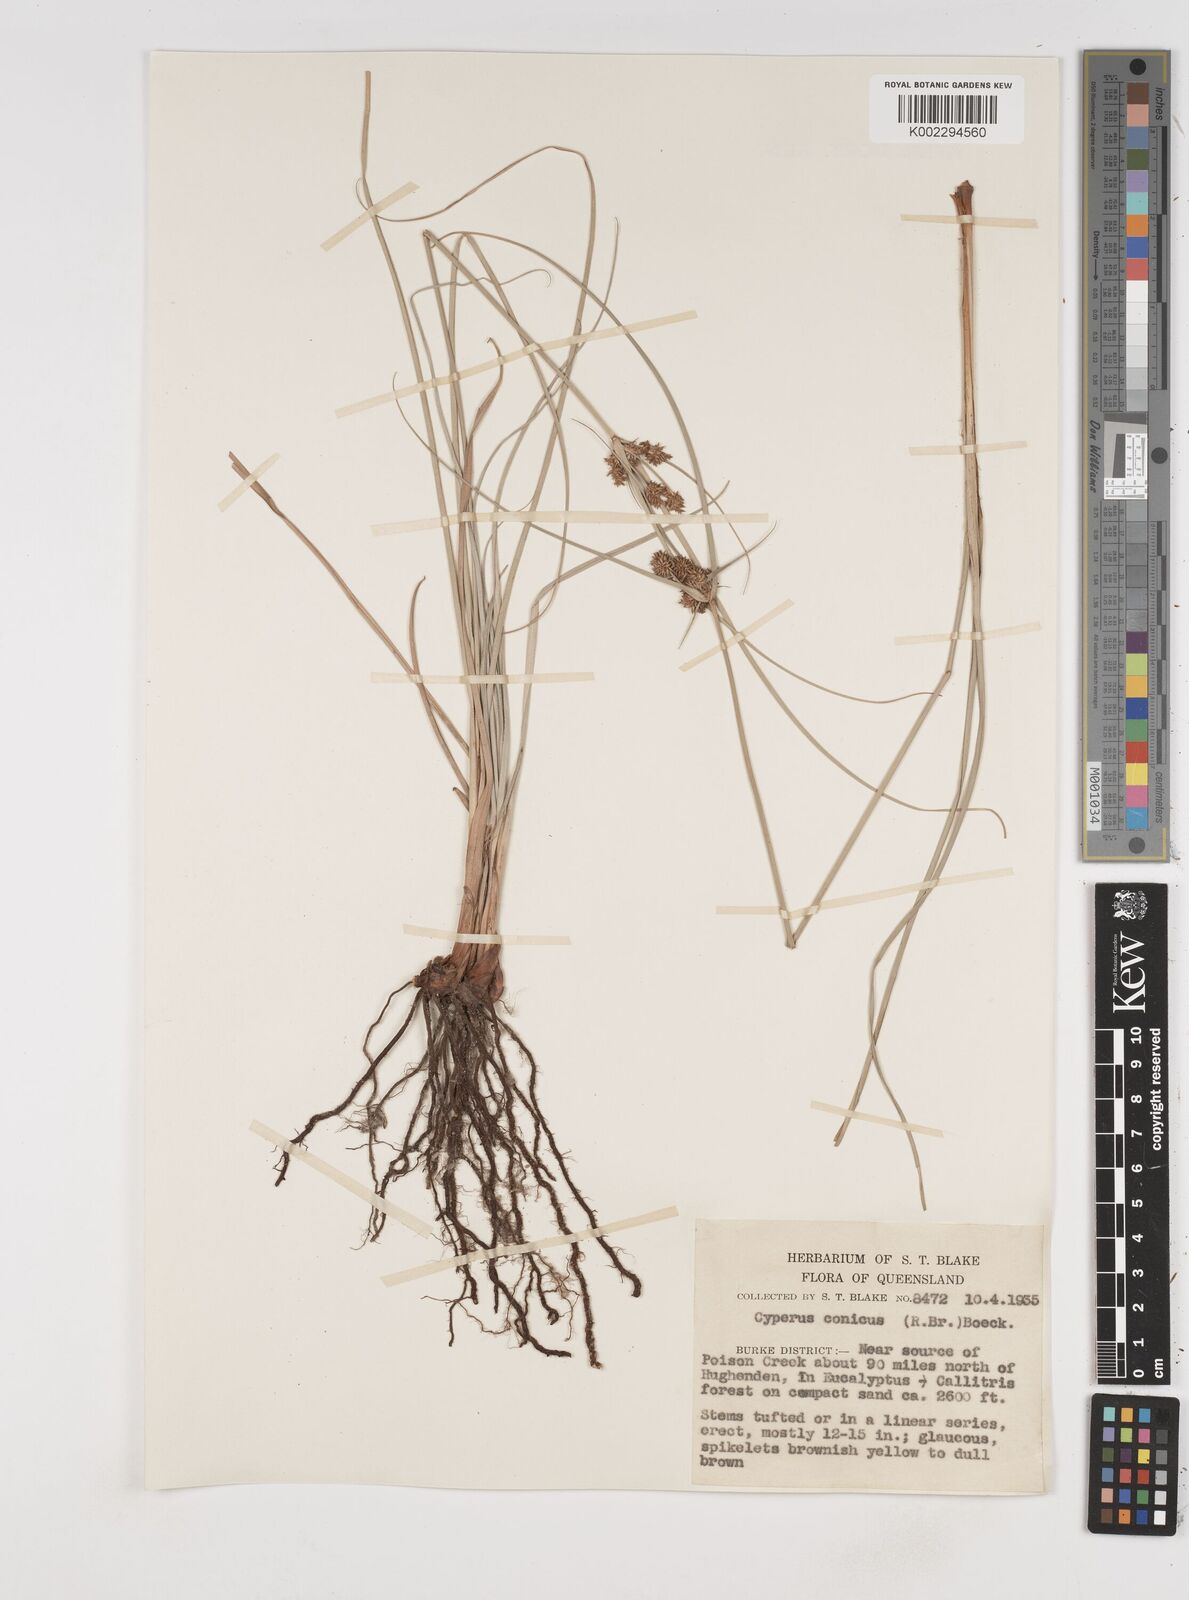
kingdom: Plantae
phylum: Tracheophyta
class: Liliopsida
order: Poales
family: Cyperaceae
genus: Cyperus
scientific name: Cyperus conicus
